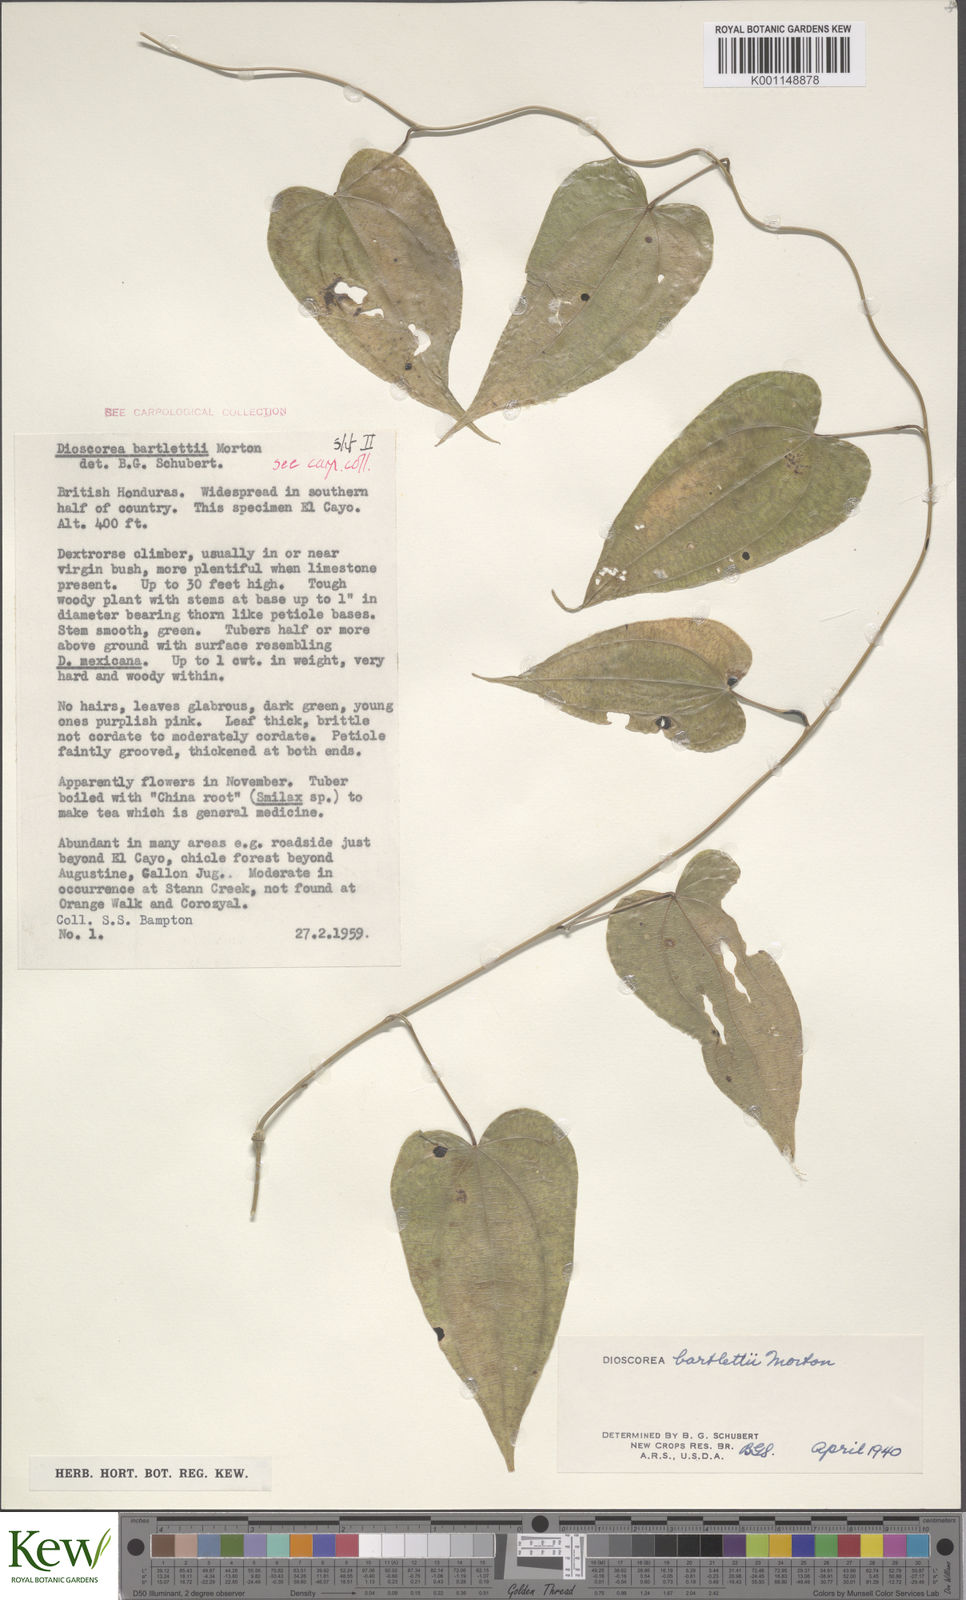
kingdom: Plantae
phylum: Tracheophyta
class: Liliopsida
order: Dioscoreales
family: Dioscoreaceae
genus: Dioscorea
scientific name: Dioscorea bartlettii
